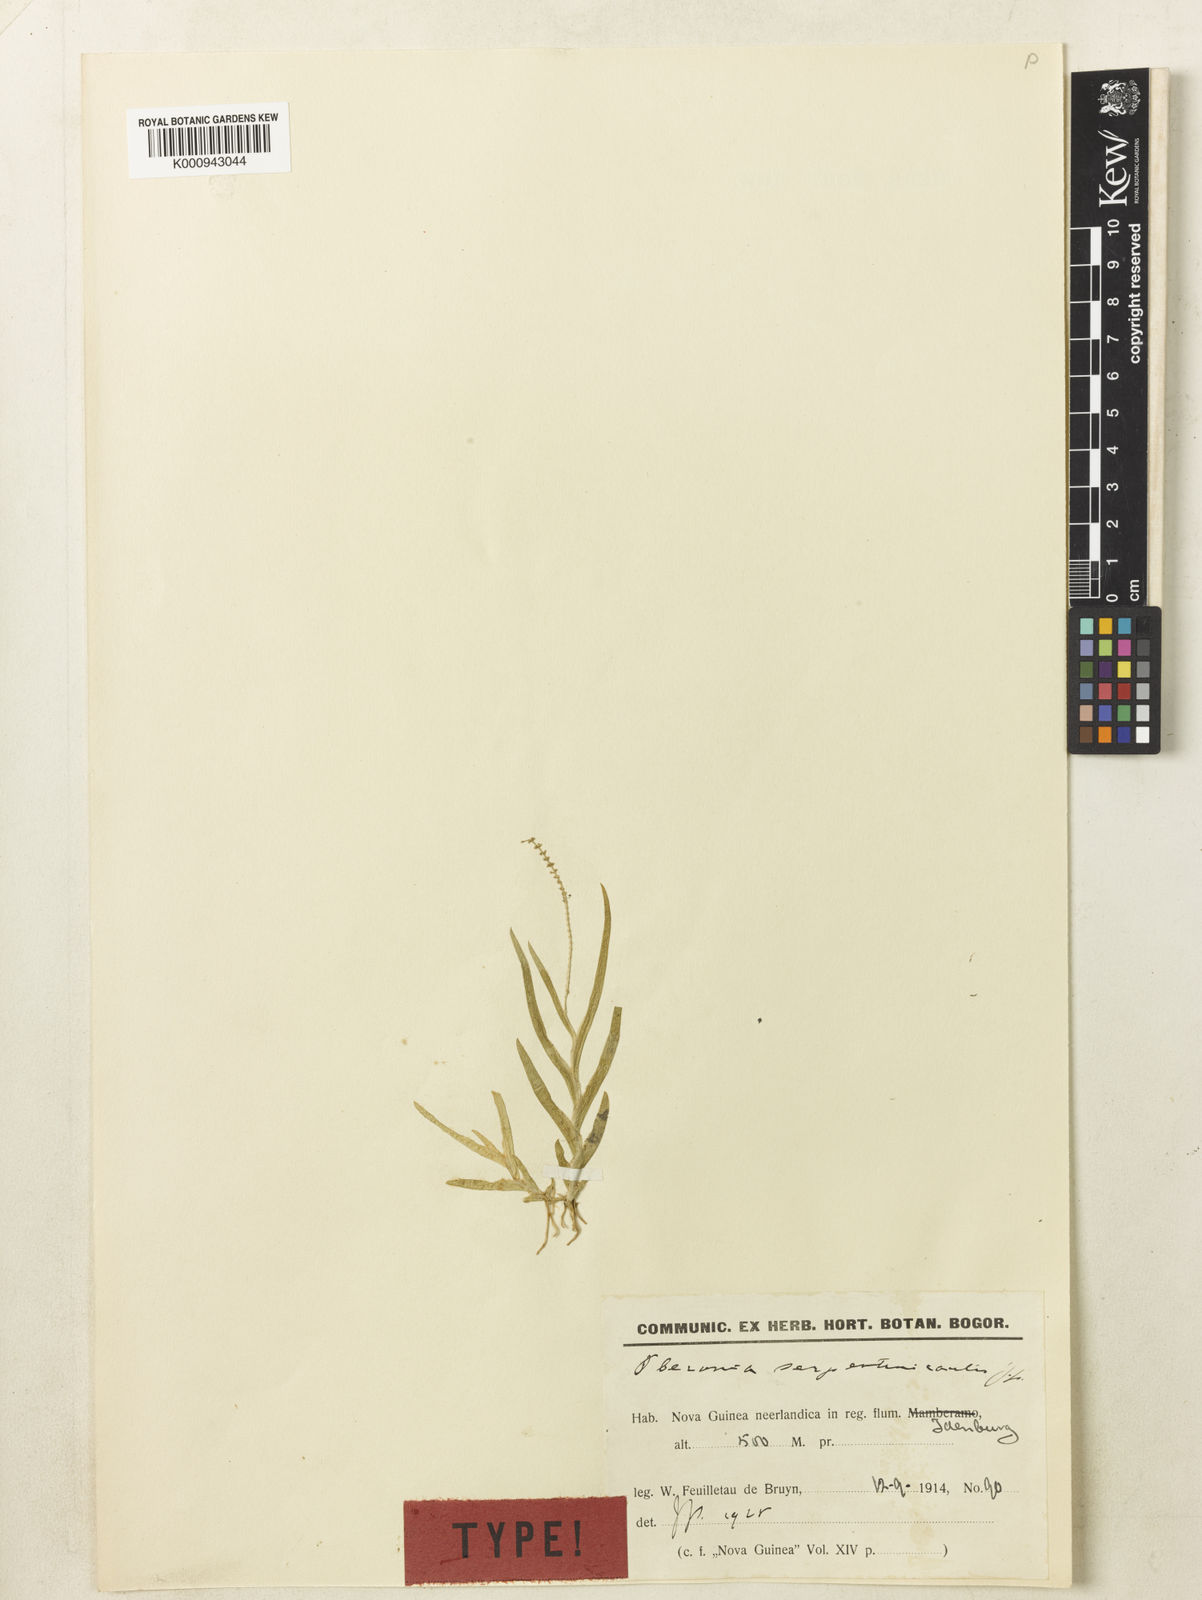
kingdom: Plantae
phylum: Tracheophyta
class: Liliopsida
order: Asparagales
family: Orchidaceae
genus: Oberonia
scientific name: Oberonia serpentinicaulis
